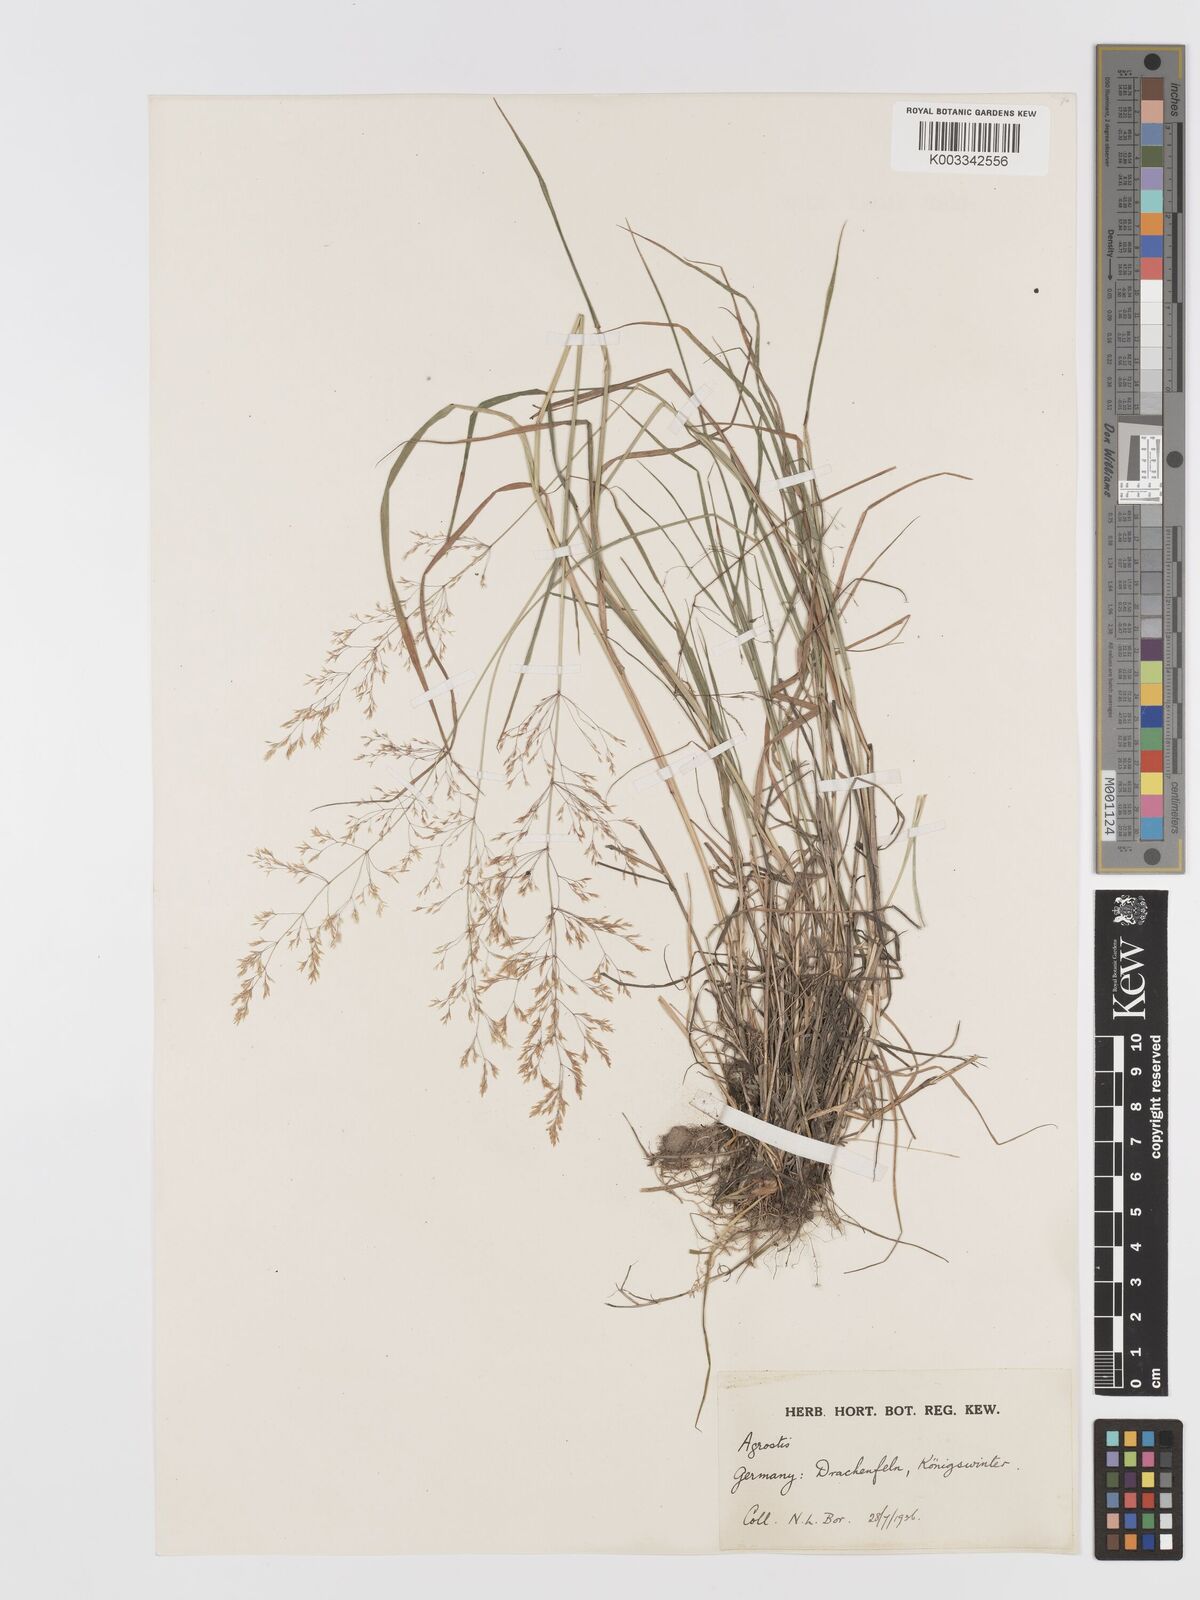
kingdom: Plantae
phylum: Tracheophyta
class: Liliopsida
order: Poales
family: Poaceae
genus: Agrostis
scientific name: Agrostis
